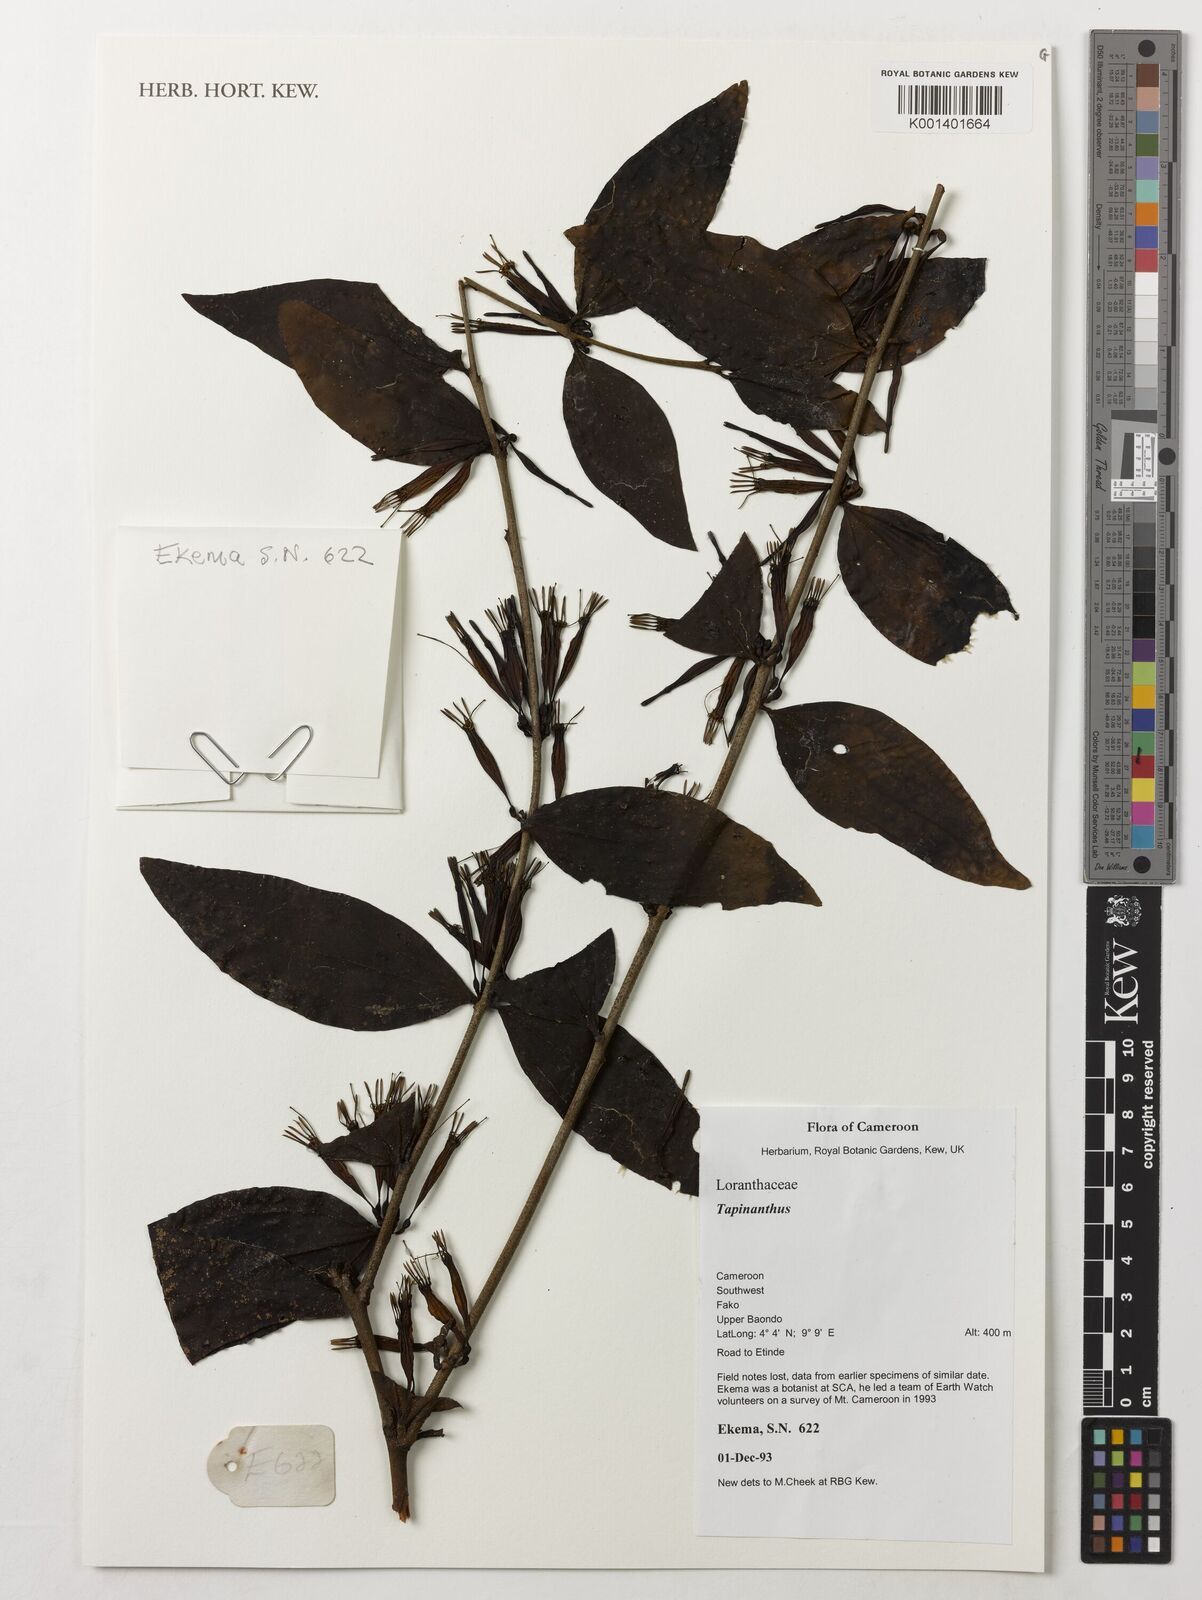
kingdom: Plantae
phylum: Tracheophyta
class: Magnoliopsida
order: Santalales
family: Loranthaceae
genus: Tapinanthus
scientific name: Tapinanthus
